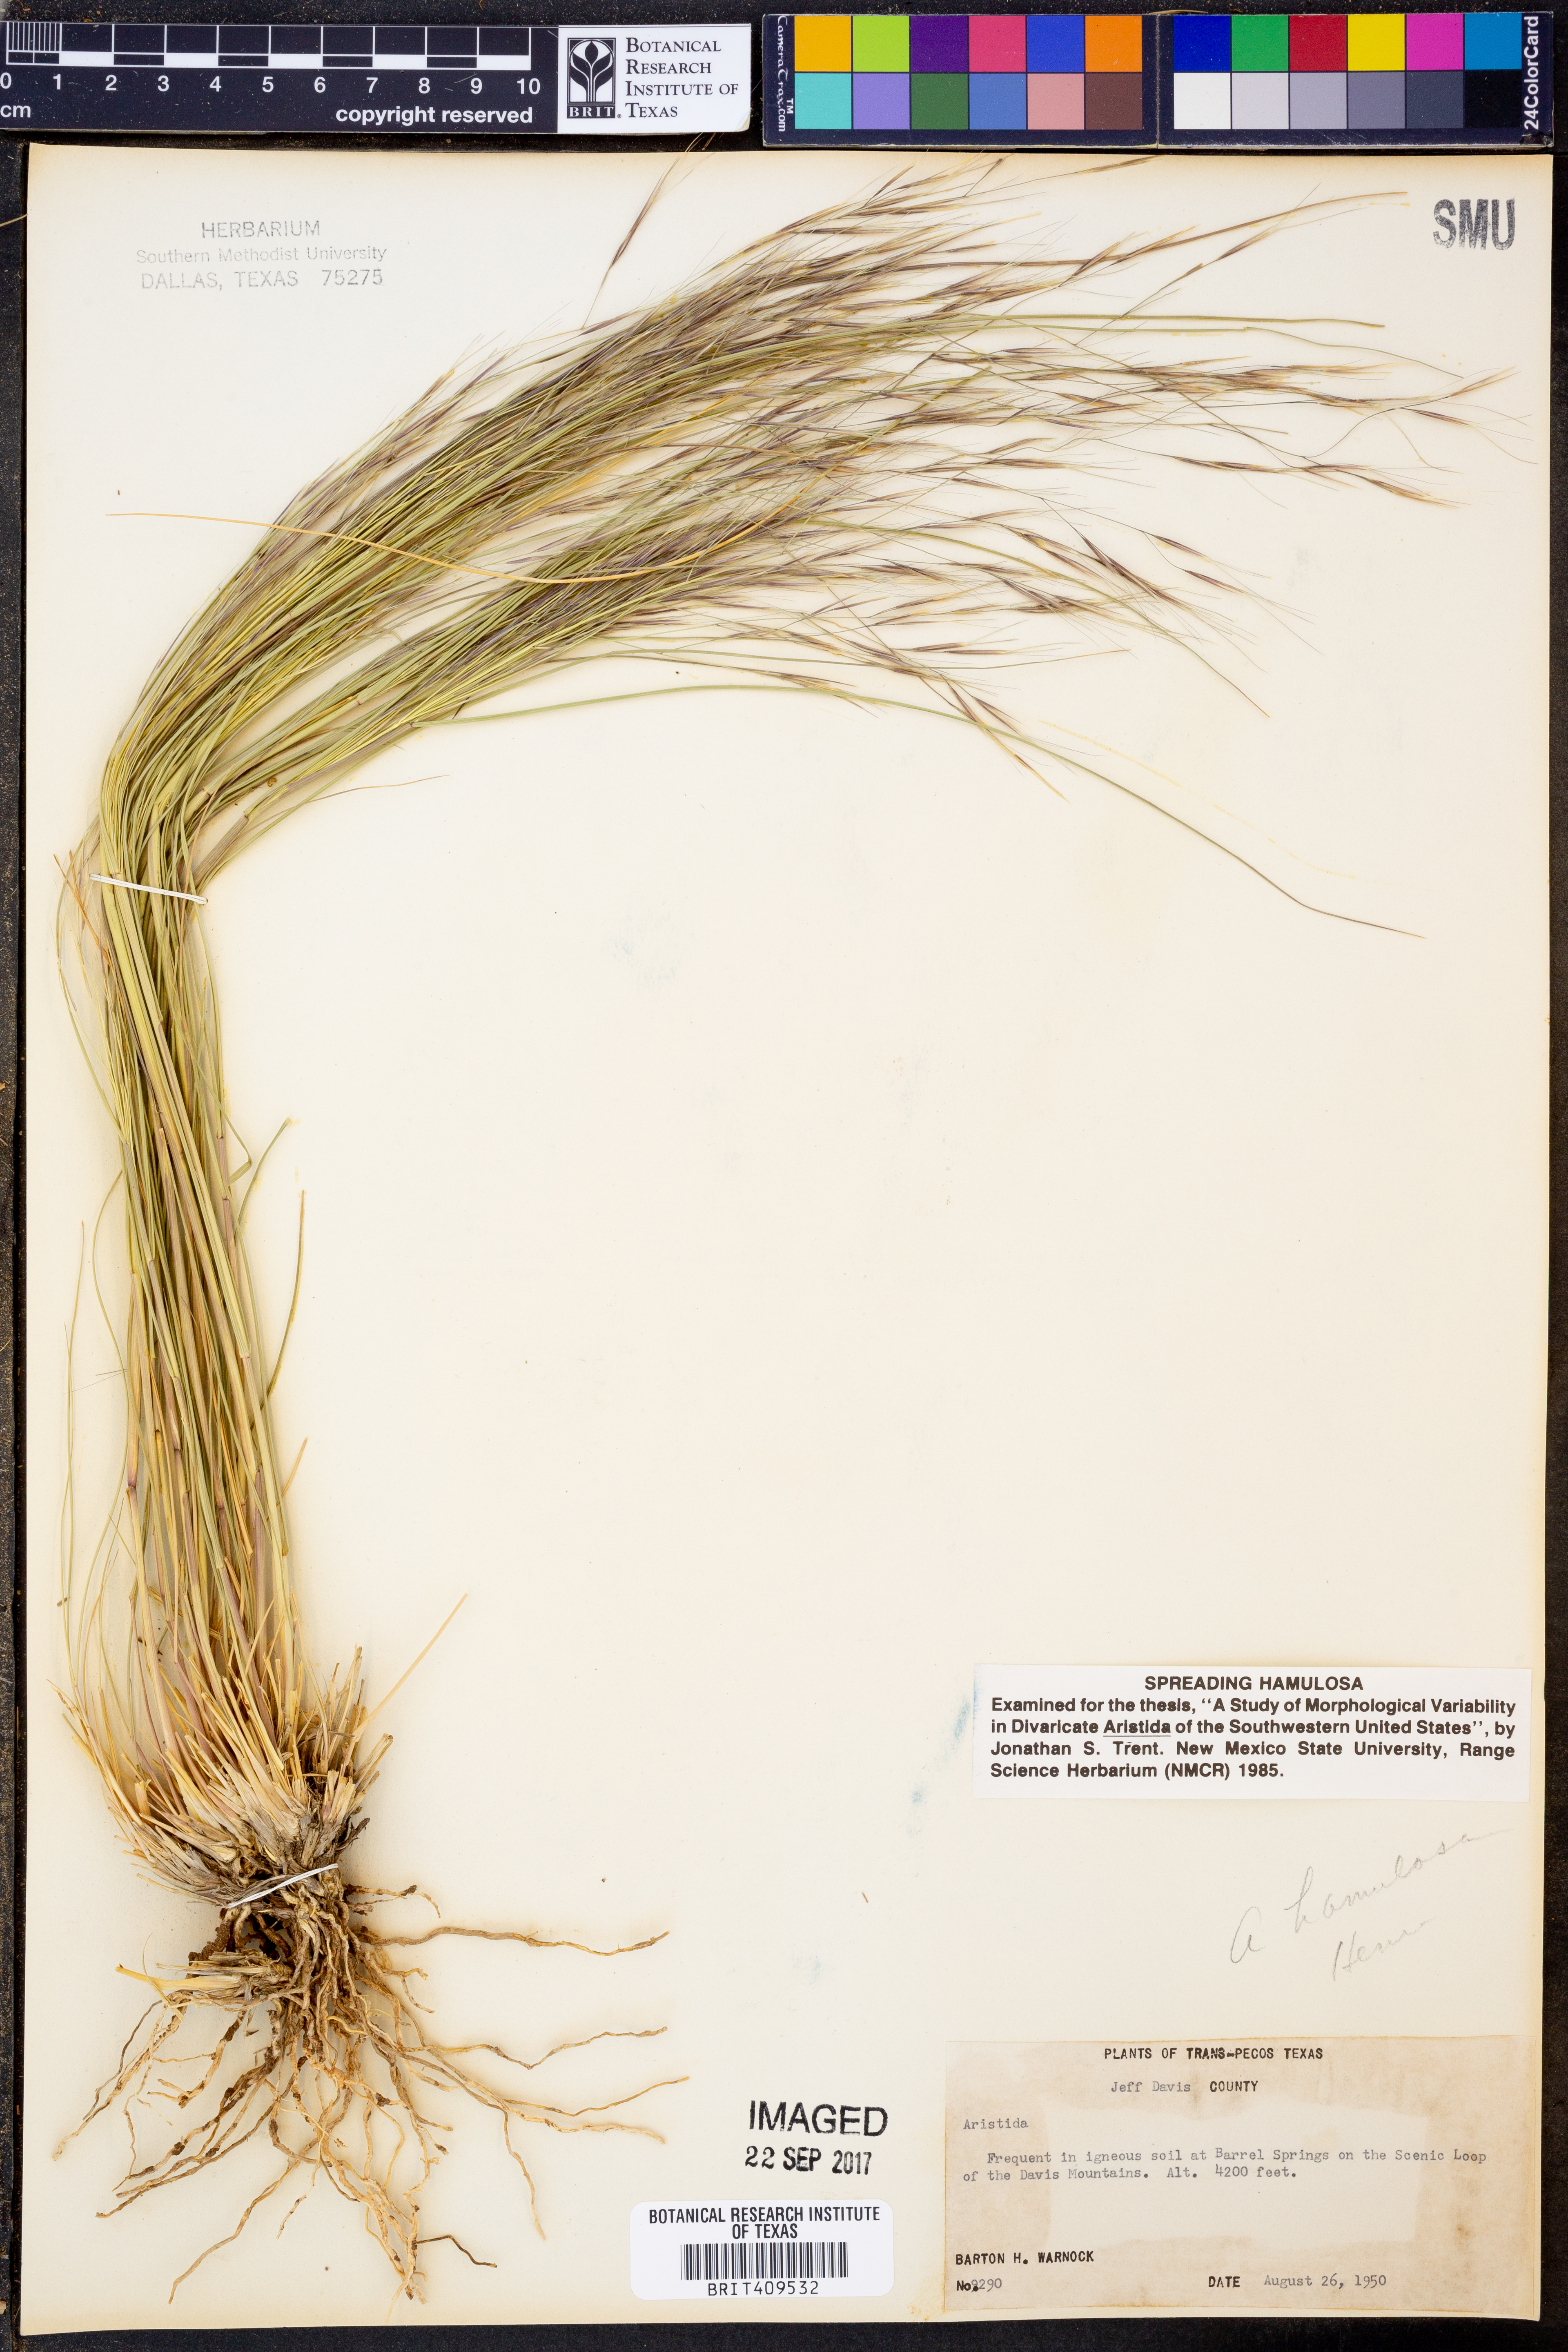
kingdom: Plantae
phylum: Tracheophyta
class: Liliopsida
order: Poales
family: Poaceae
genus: Aristida
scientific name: Aristida hamulosa
